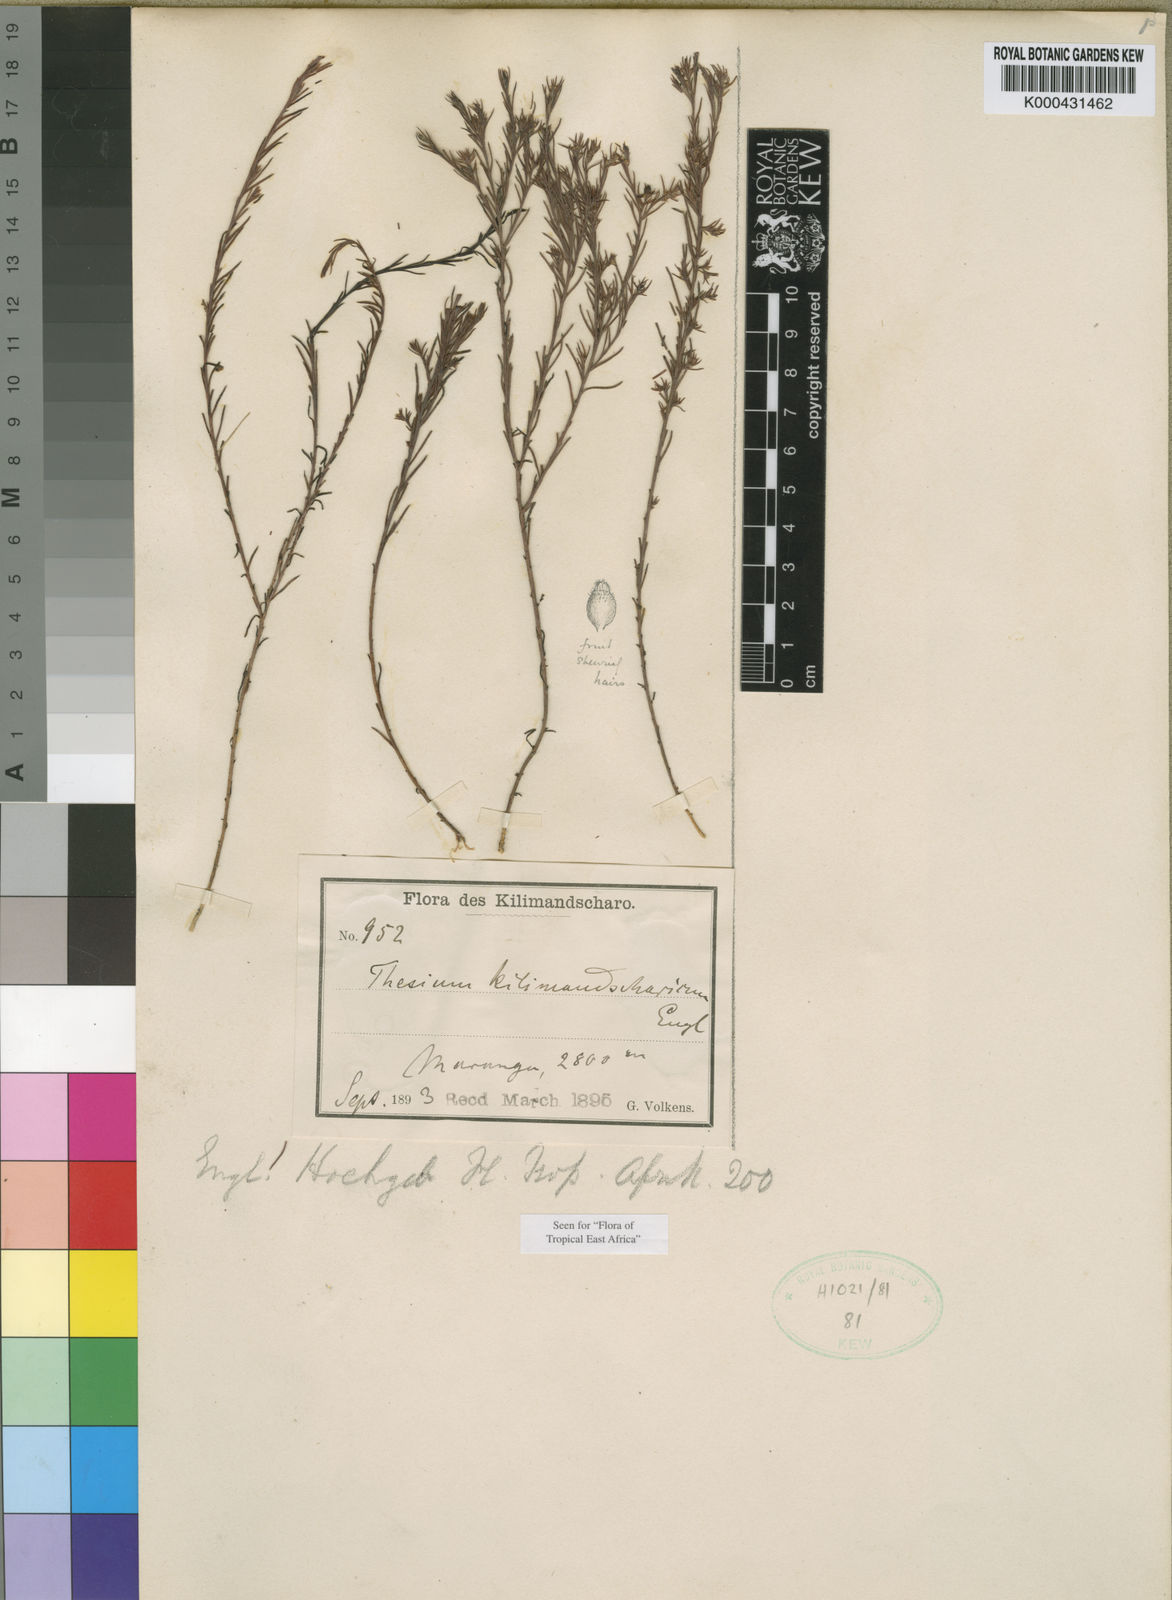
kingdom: Plantae
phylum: Tracheophyta
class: Magnoliopsida
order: Santalales
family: Thesiaceae
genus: Thesium
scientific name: Thesium kilimandscharicum
